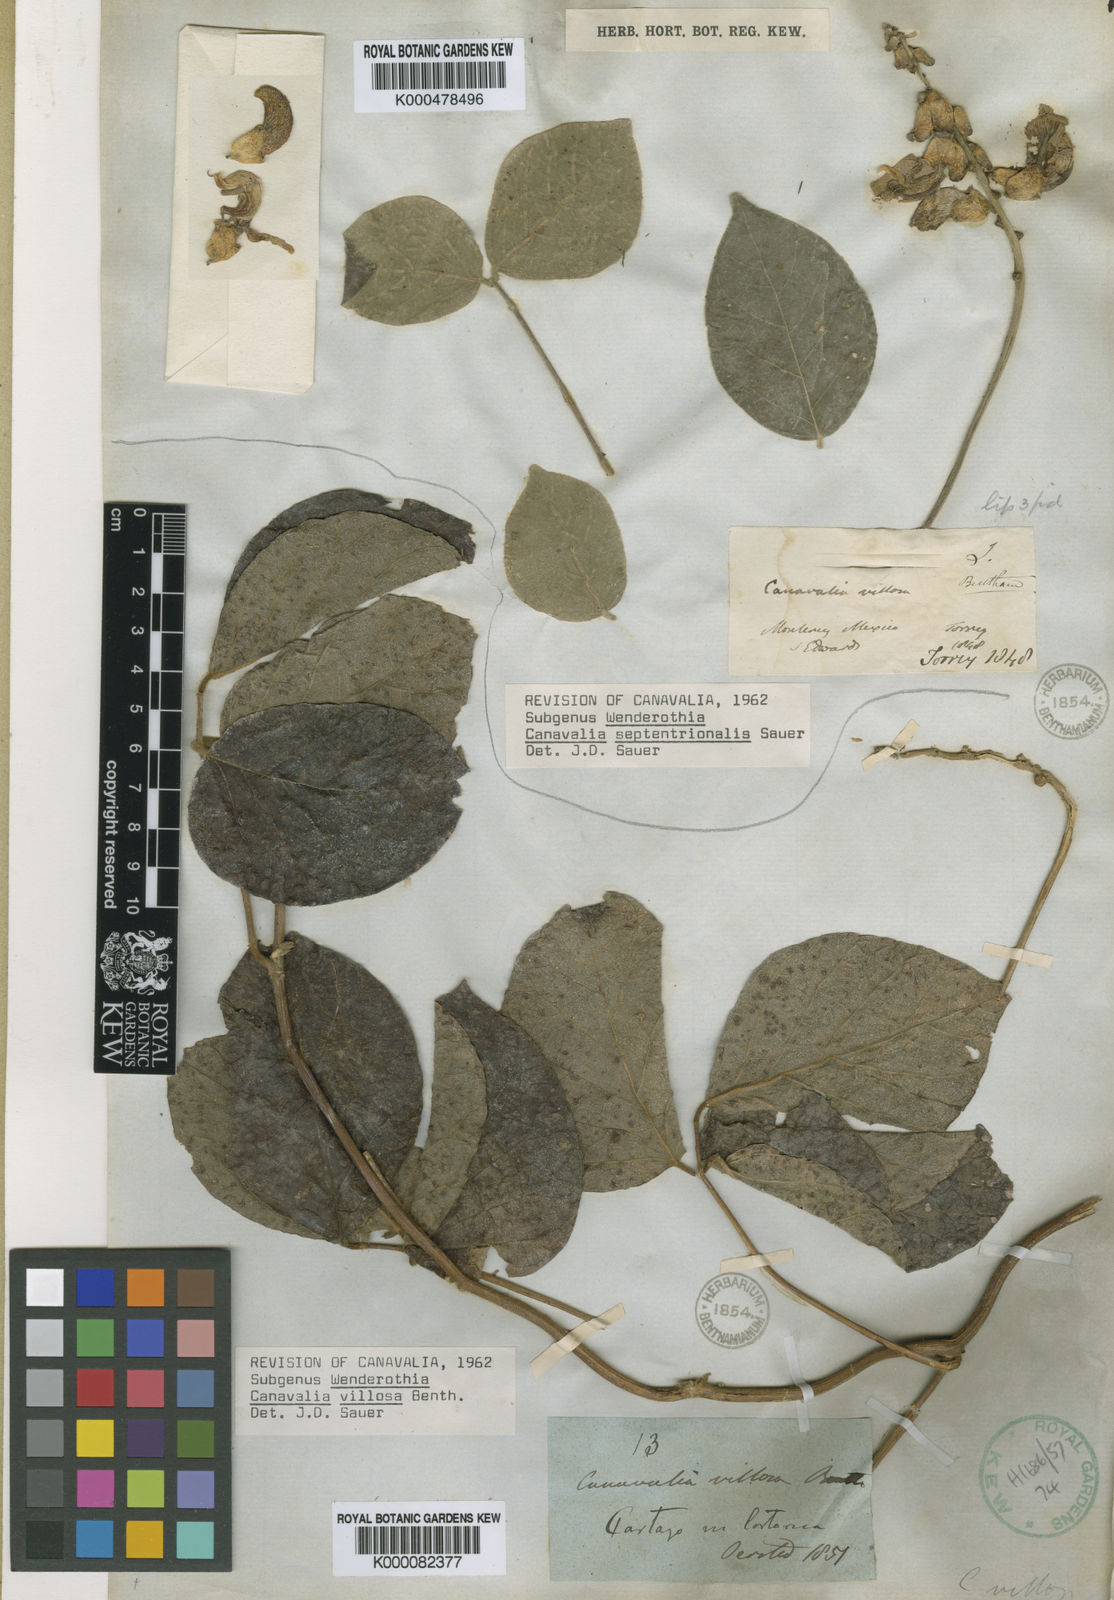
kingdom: Plantae
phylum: Tracheophyta
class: Magnoliopsida
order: Fabales
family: Fabaceae
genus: Canavalia
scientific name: Canavalia villosa
